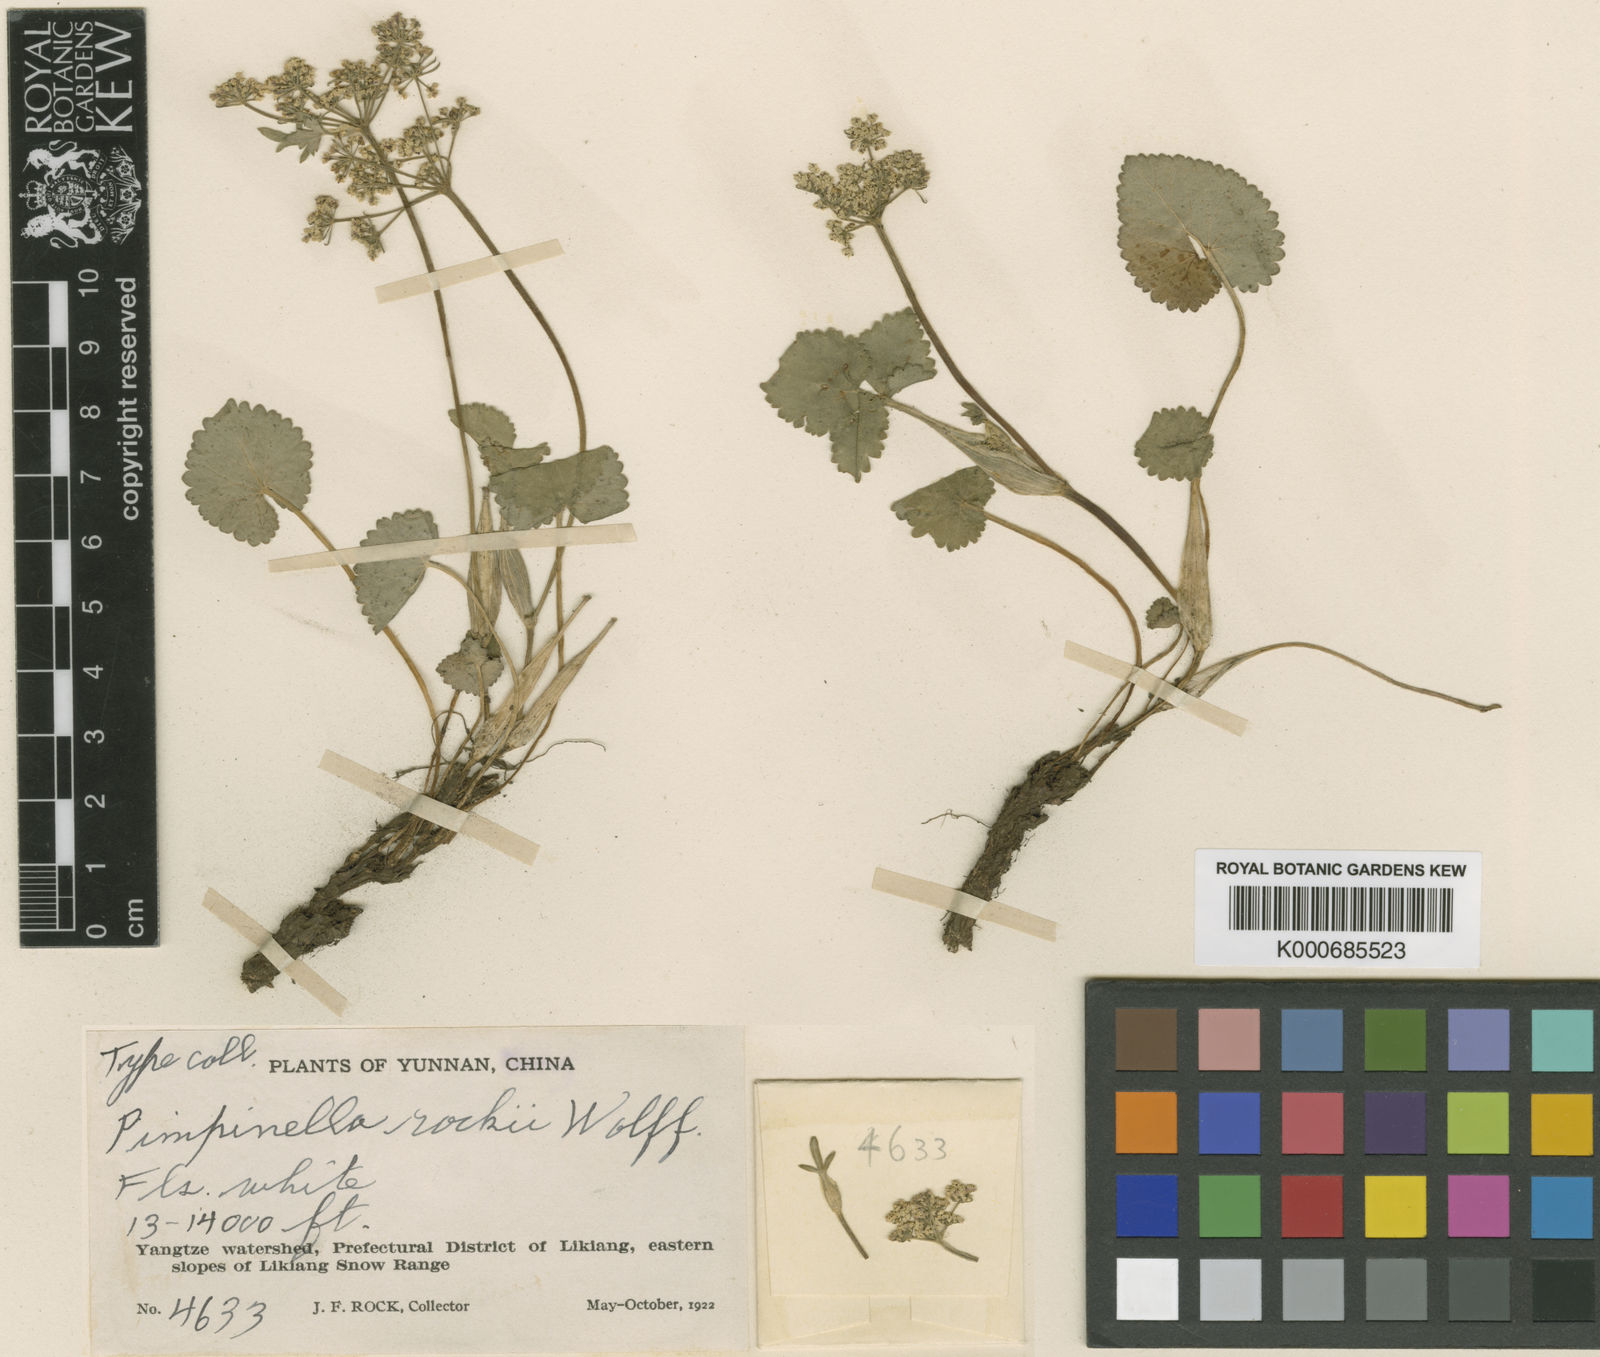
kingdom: Plantae
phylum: Tracheophyta
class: Magnoliopsida
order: Apiales
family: Apiaceae
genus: Pimpinella
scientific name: Pimpinella coriacea
